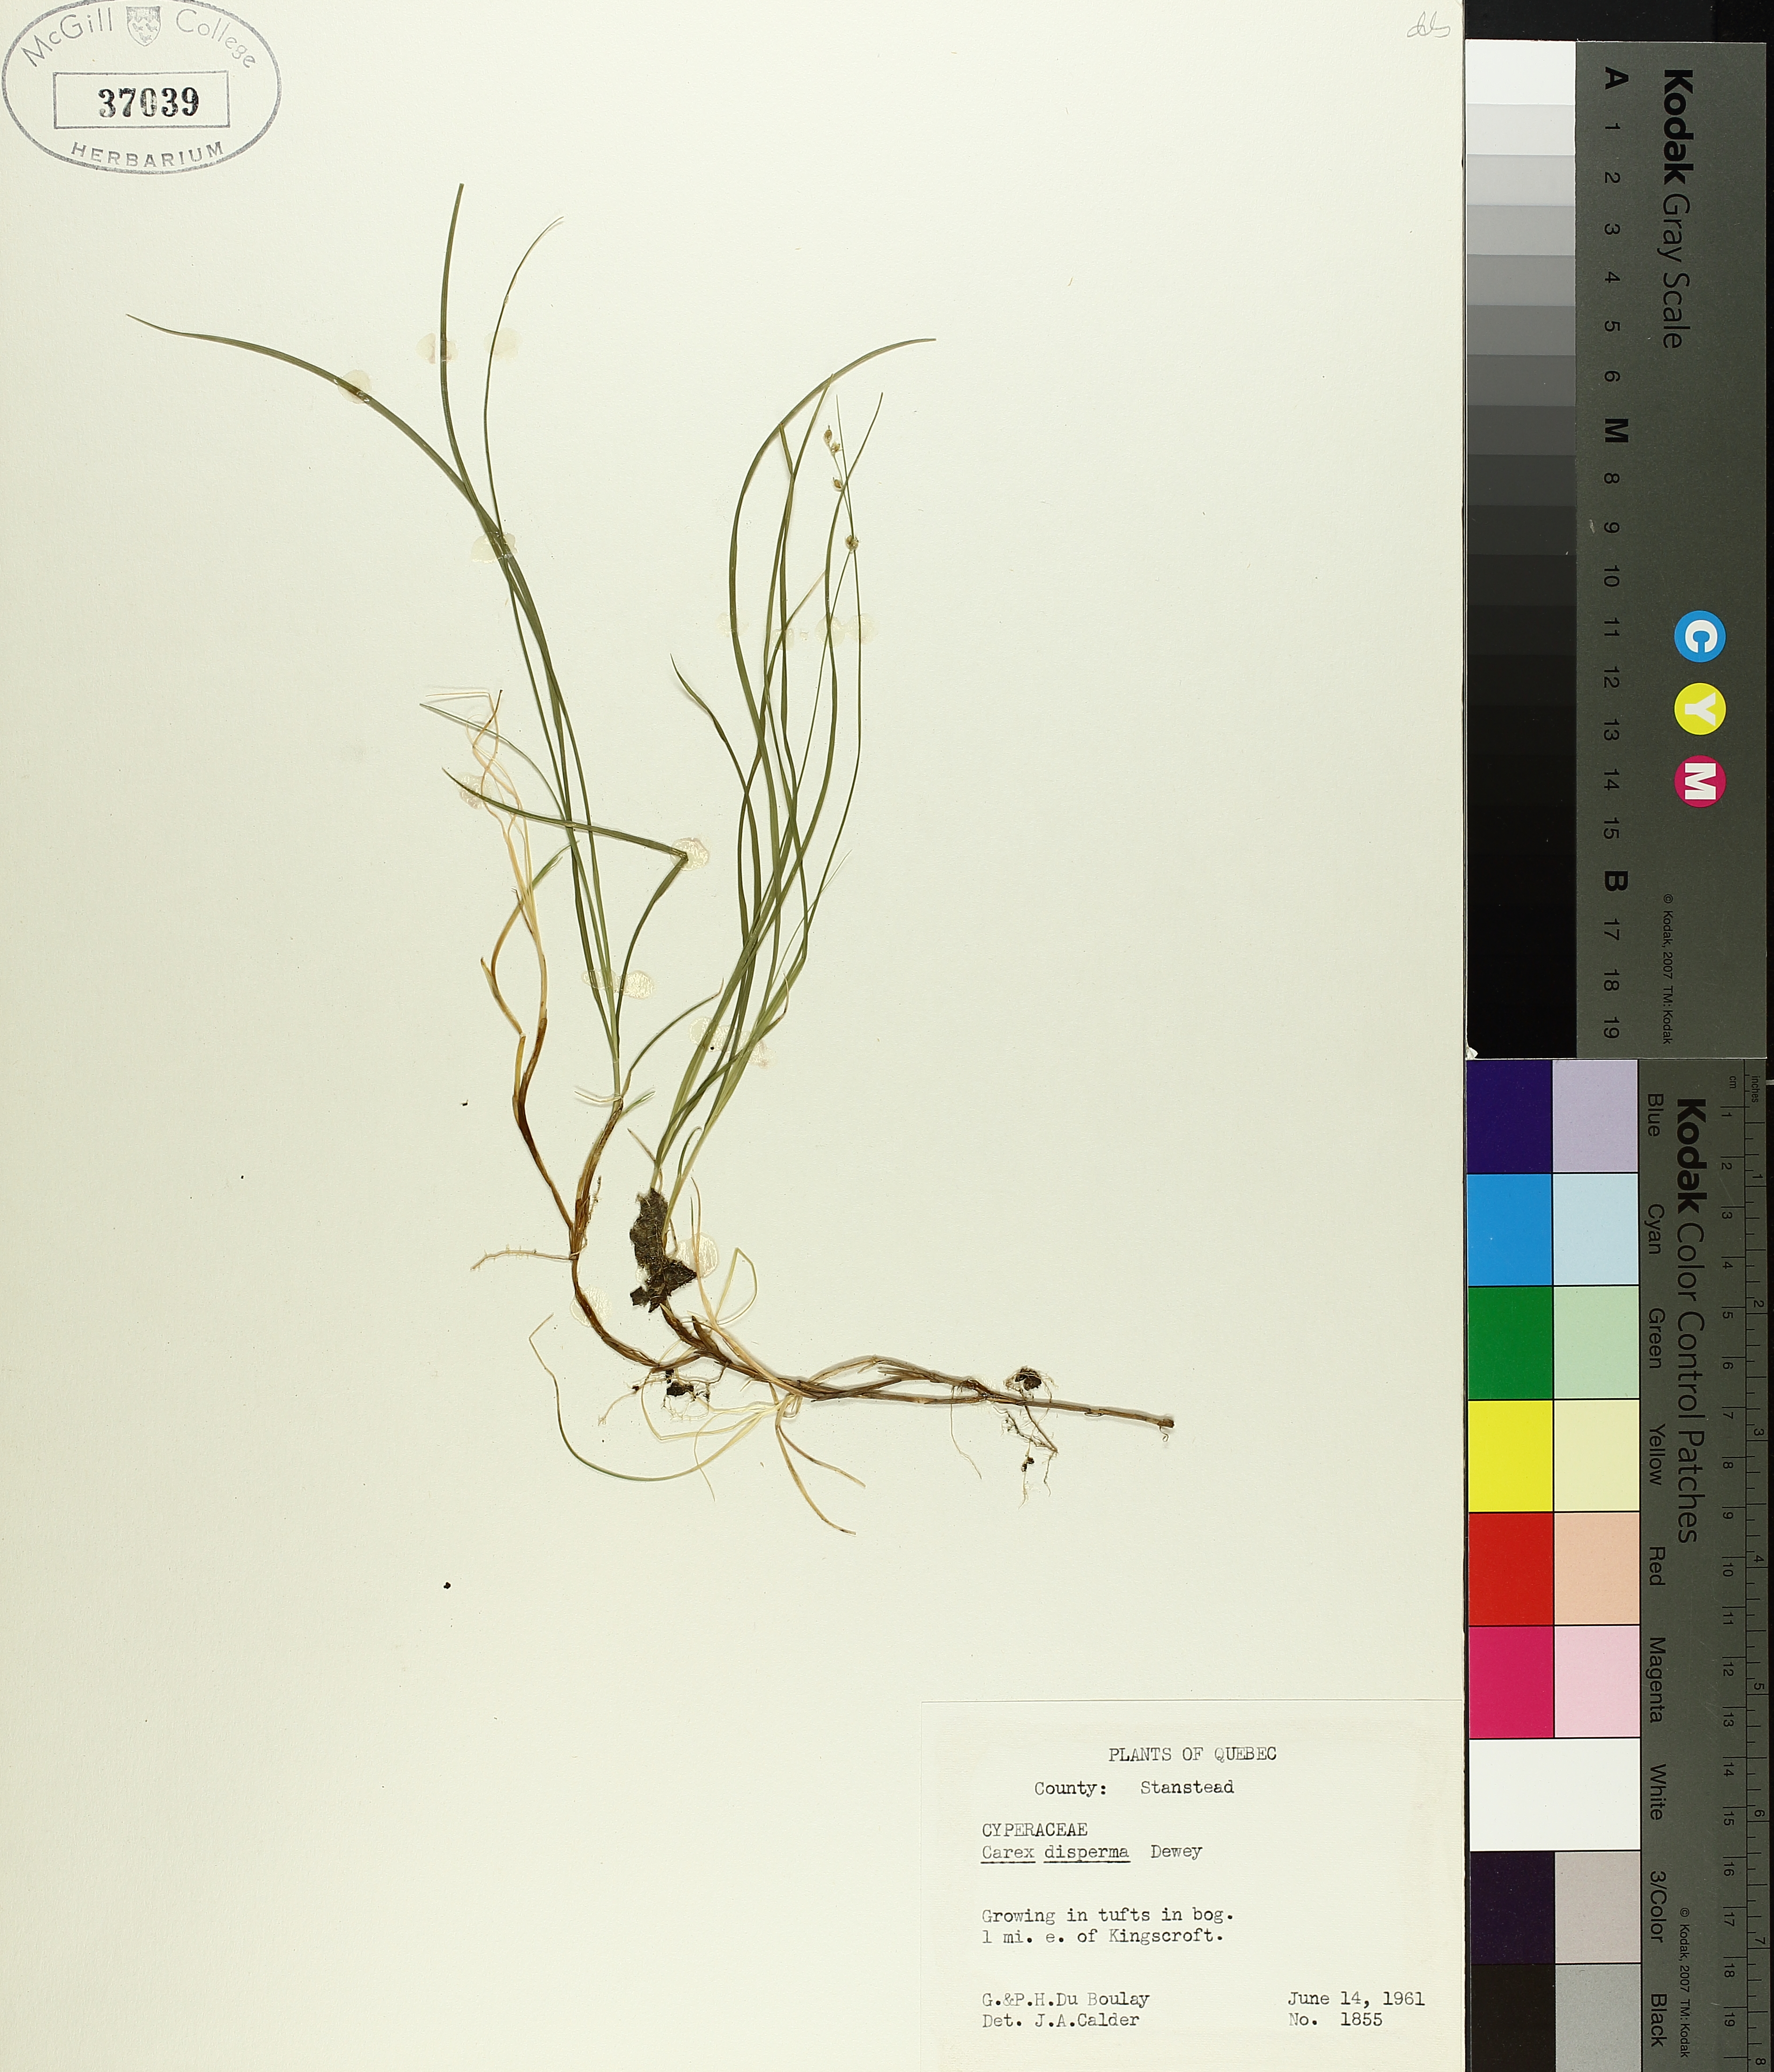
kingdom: Plantae
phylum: Tracheophyta
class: Liliopsida
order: Poales
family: Cyperaceae
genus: Carex
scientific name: Carex disperma
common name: Short-leaved sedge
